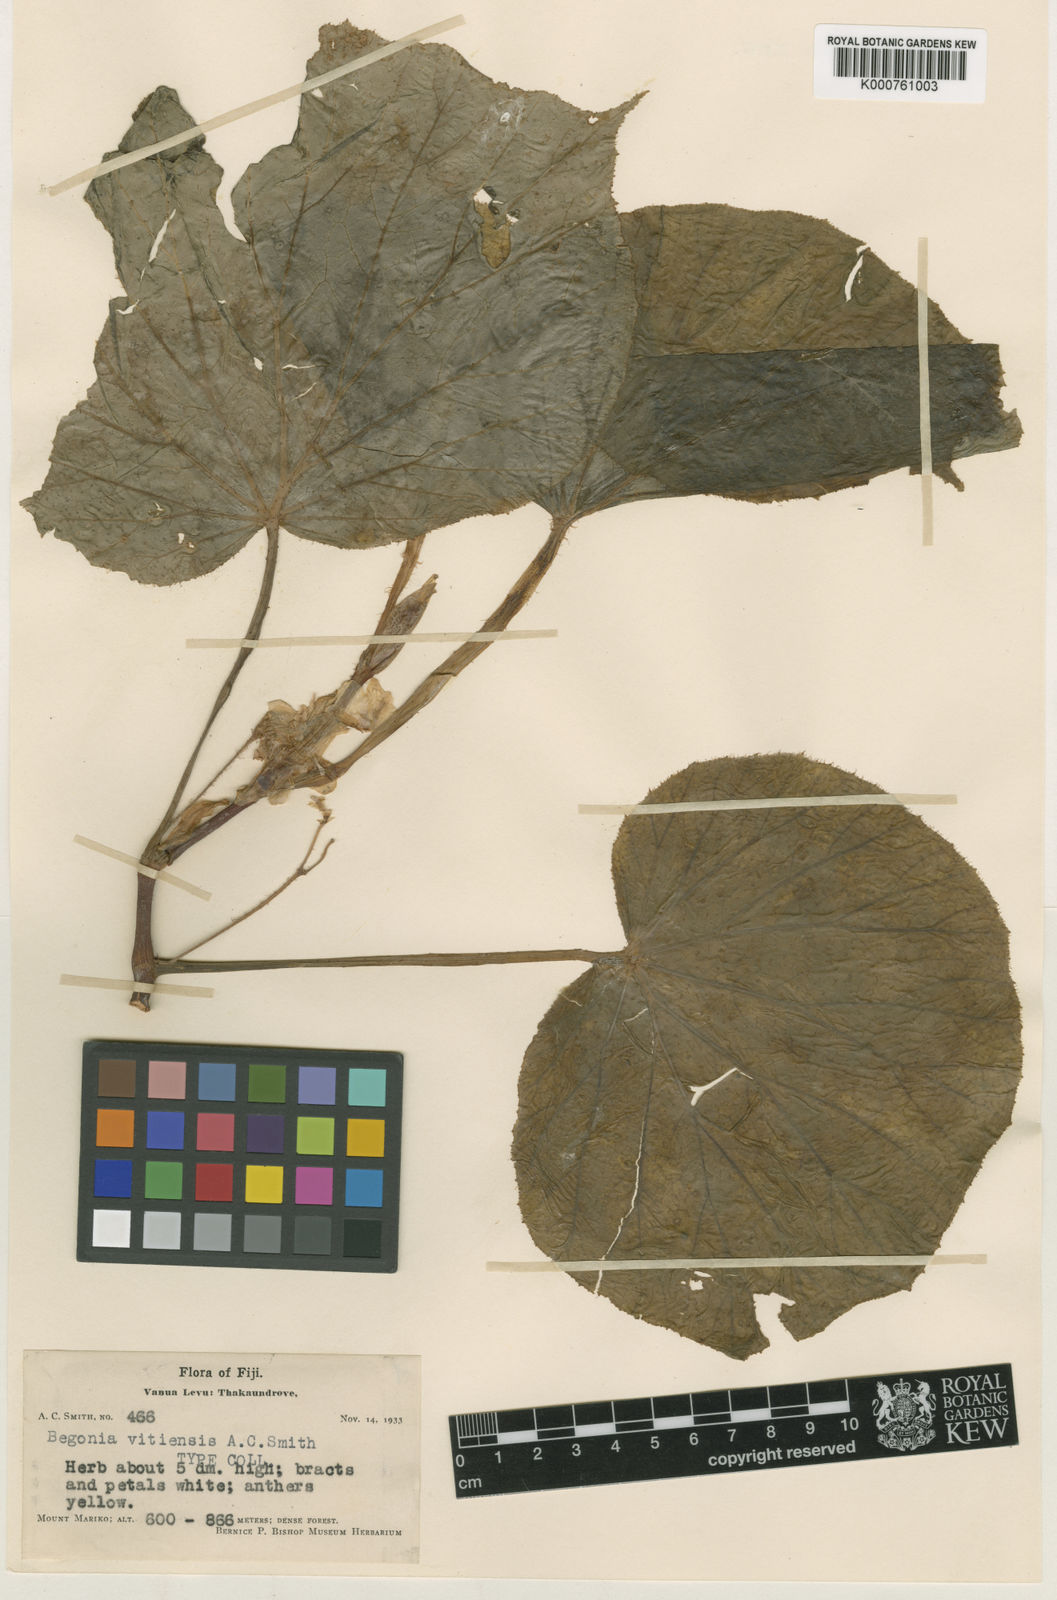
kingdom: Plantae
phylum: Tracheophyta
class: Magnoliopsida
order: Cucurbitales
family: Begoniaceae
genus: Begonia
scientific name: Begonia vitiensis
